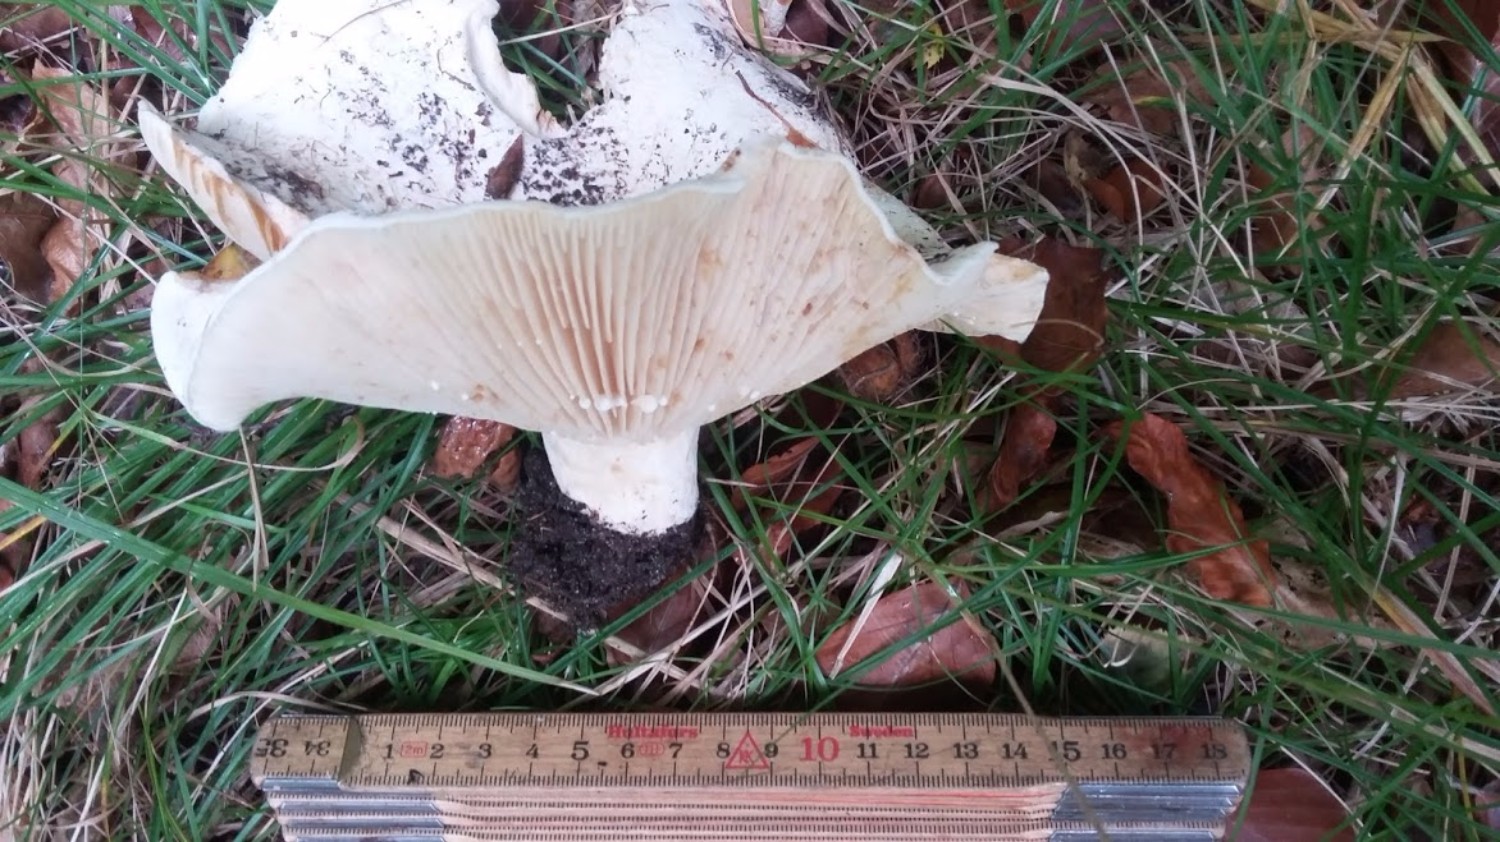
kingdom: Fungi
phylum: Basidiomycota
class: Agaricomycetes
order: Russulales
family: Russulaceae
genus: Lactifluus
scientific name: Lactifluus vellereus
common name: hvidfiltet mælkehat
